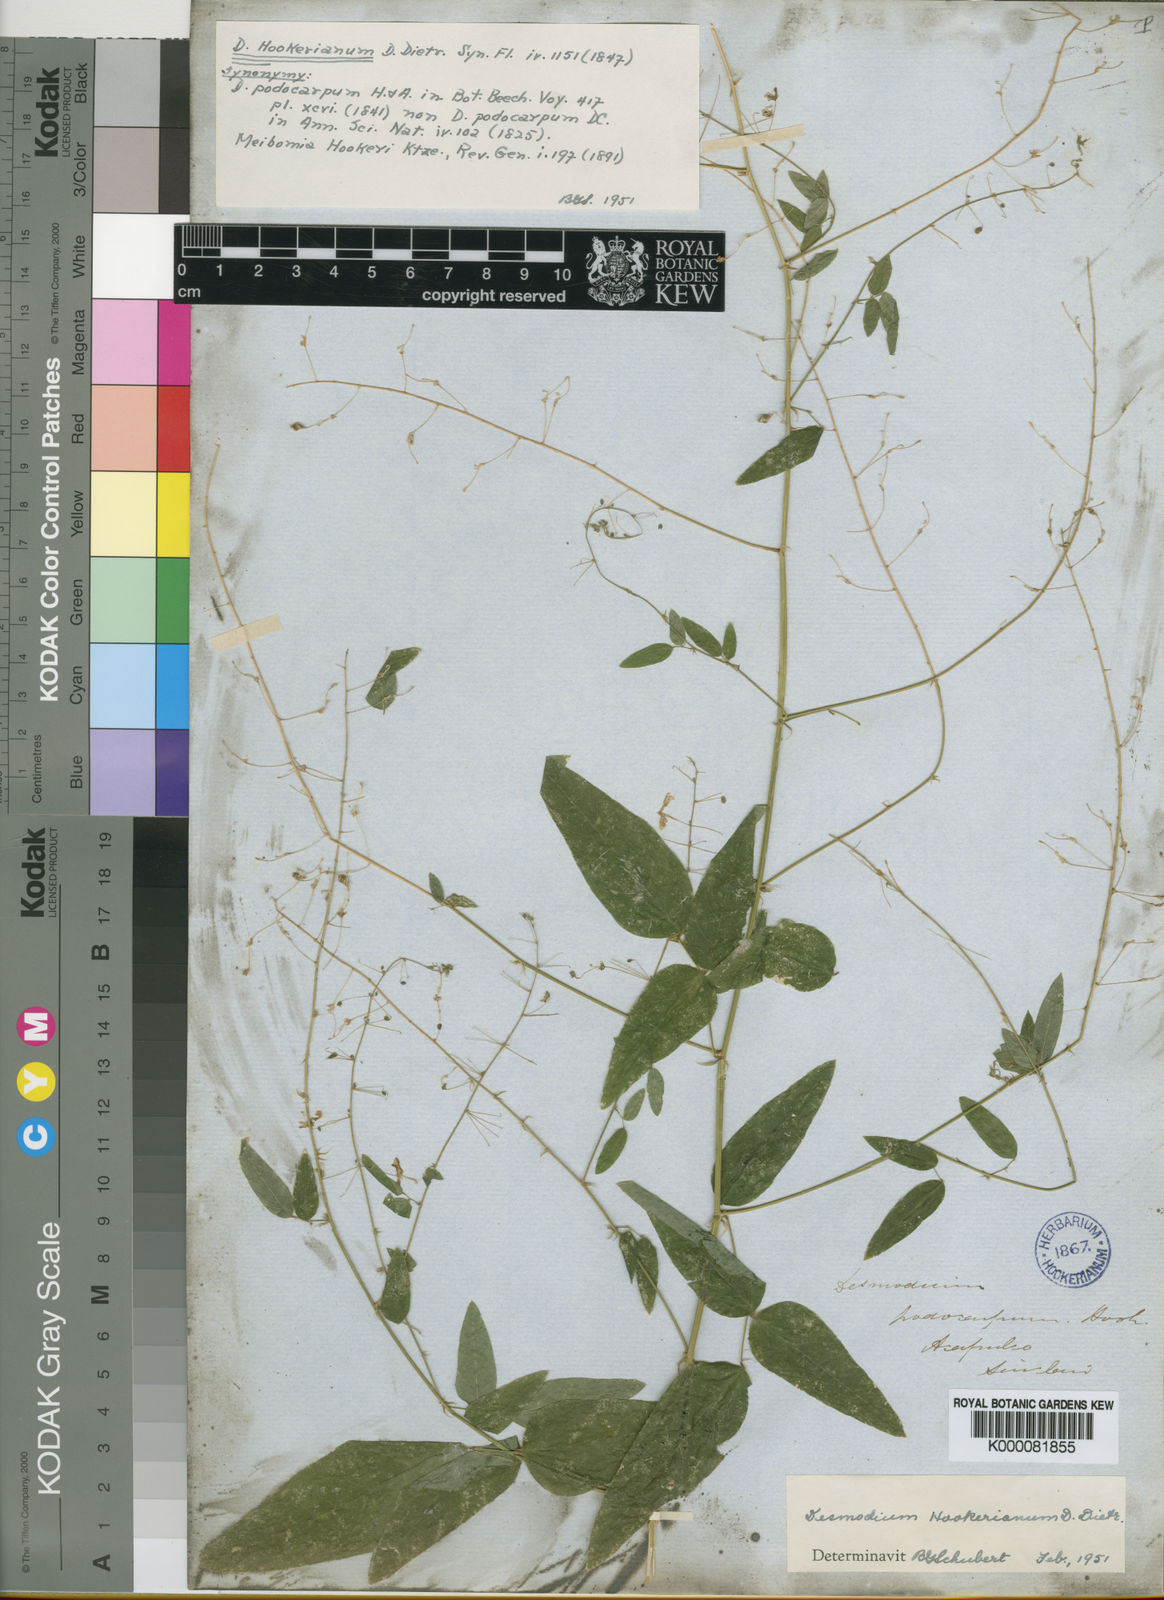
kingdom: Plantae
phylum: Tracheophyta
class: Magnoliopsida
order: Fabales
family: Fabaceae
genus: Desmodium
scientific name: Desmodium hookerianum
